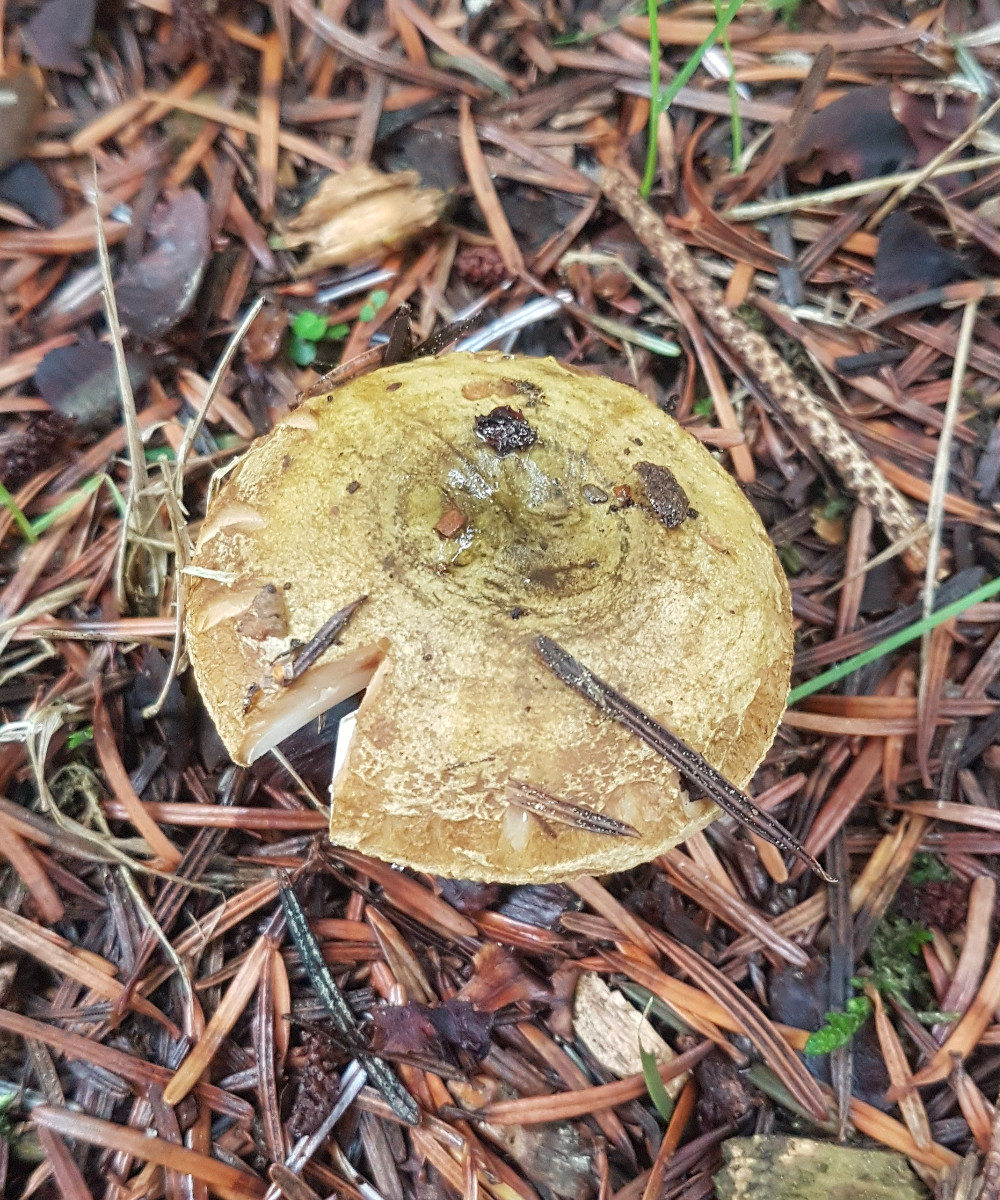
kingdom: Fungi
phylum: Basidiomycota
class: Agaricomycetes
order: Russulales
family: Russulaceae
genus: Lactarius
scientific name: Lactarius necator
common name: manddraber-mælkehat
